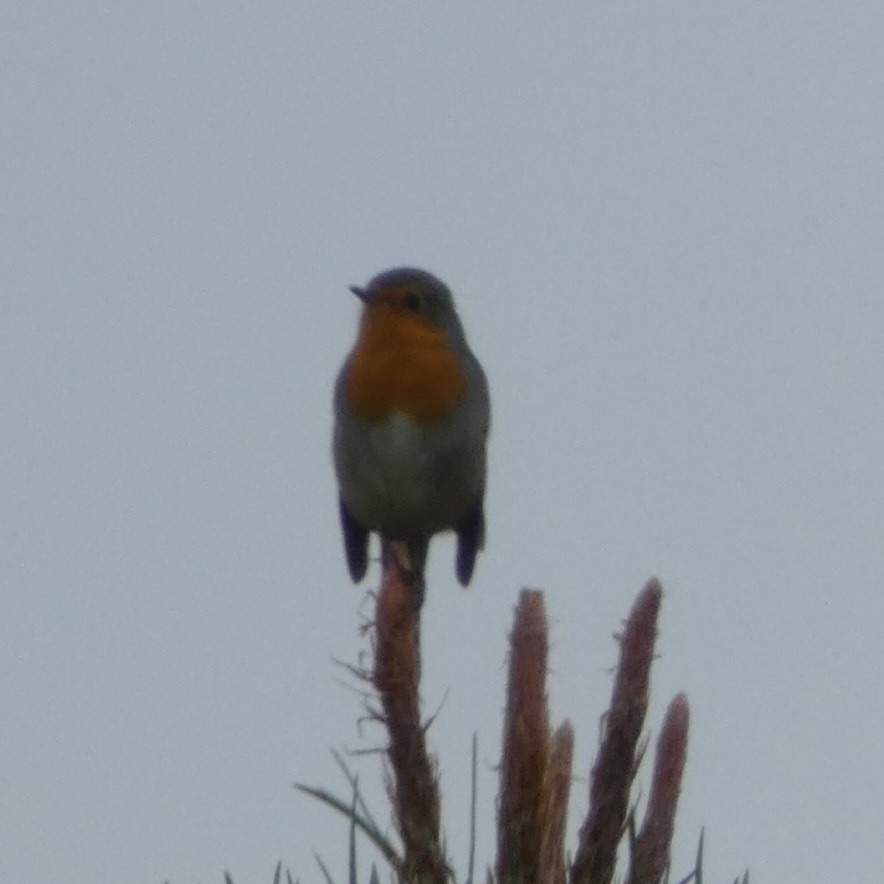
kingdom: Animalia
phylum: Chordata
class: Aves
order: Passeriformes
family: Muscicapidae
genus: Erithacus
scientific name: Erithacus rubecula
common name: Rødhals/rødkælk
